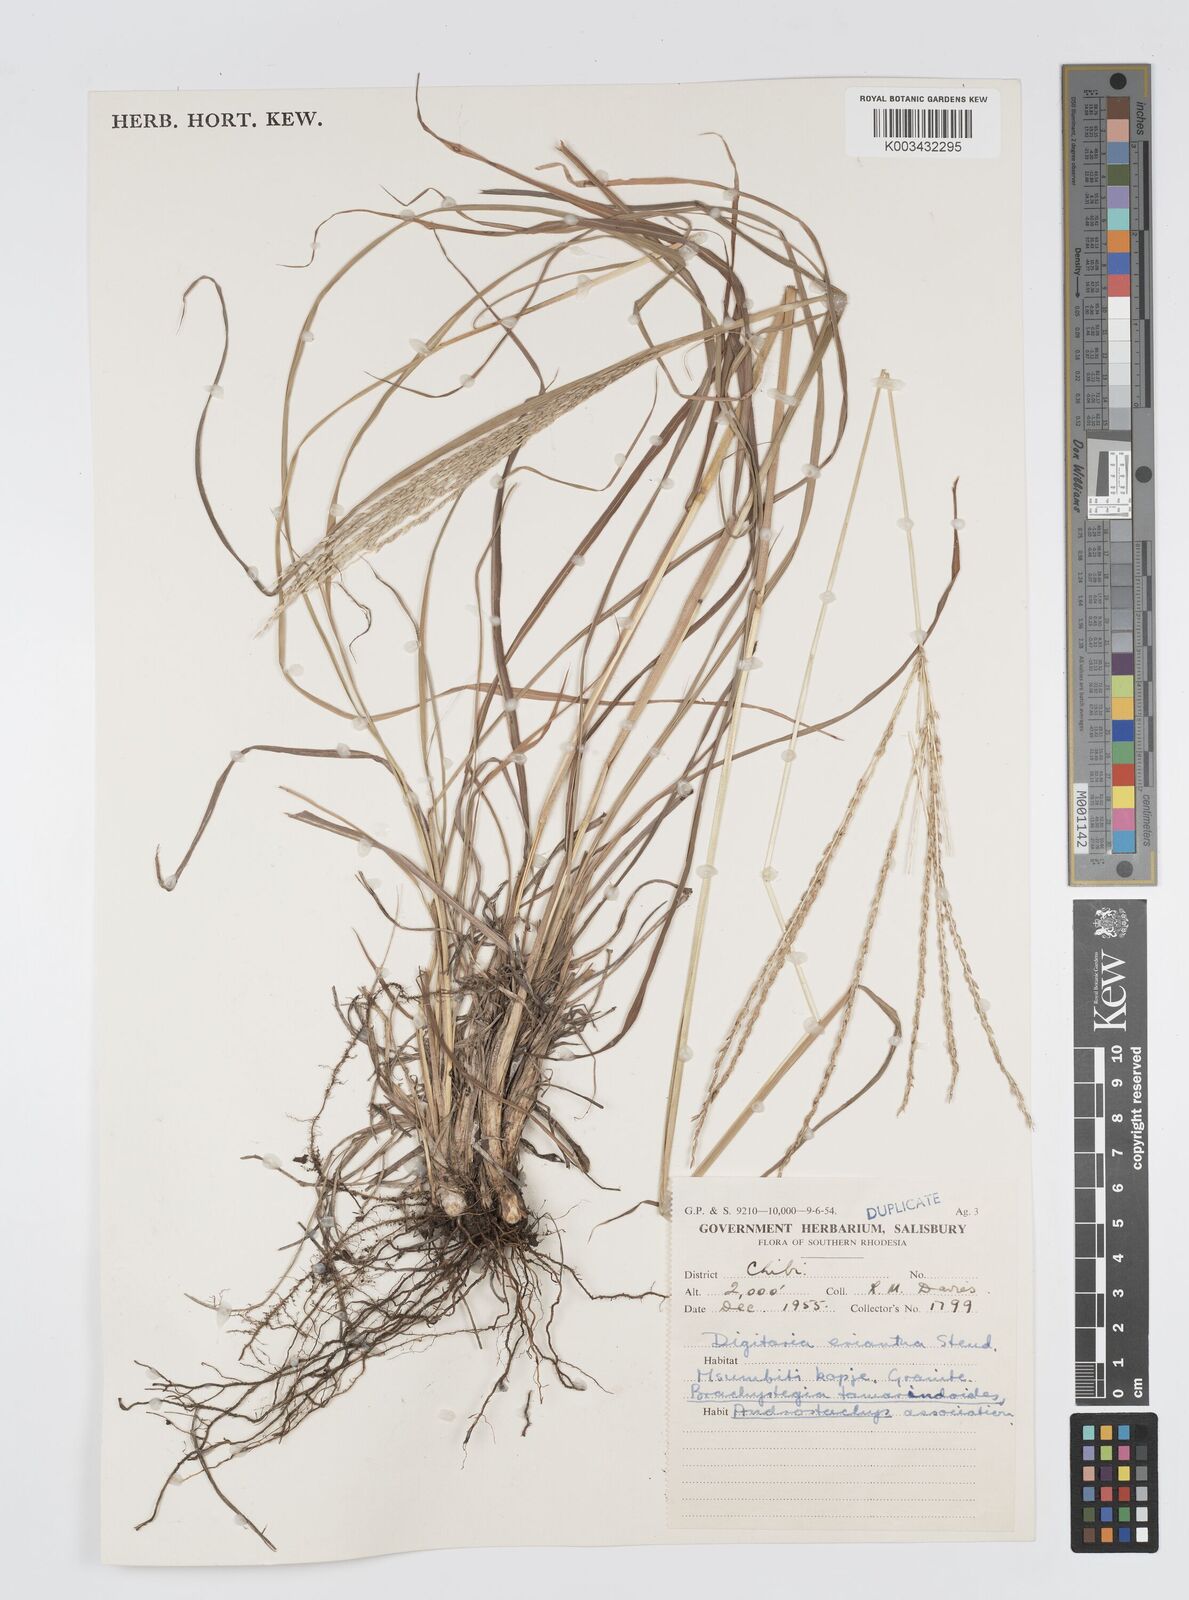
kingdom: Plantae
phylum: Tracheophyta
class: Liliopsida
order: Poales
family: Poaceae
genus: Digitaria
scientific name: Digitaria seriata
